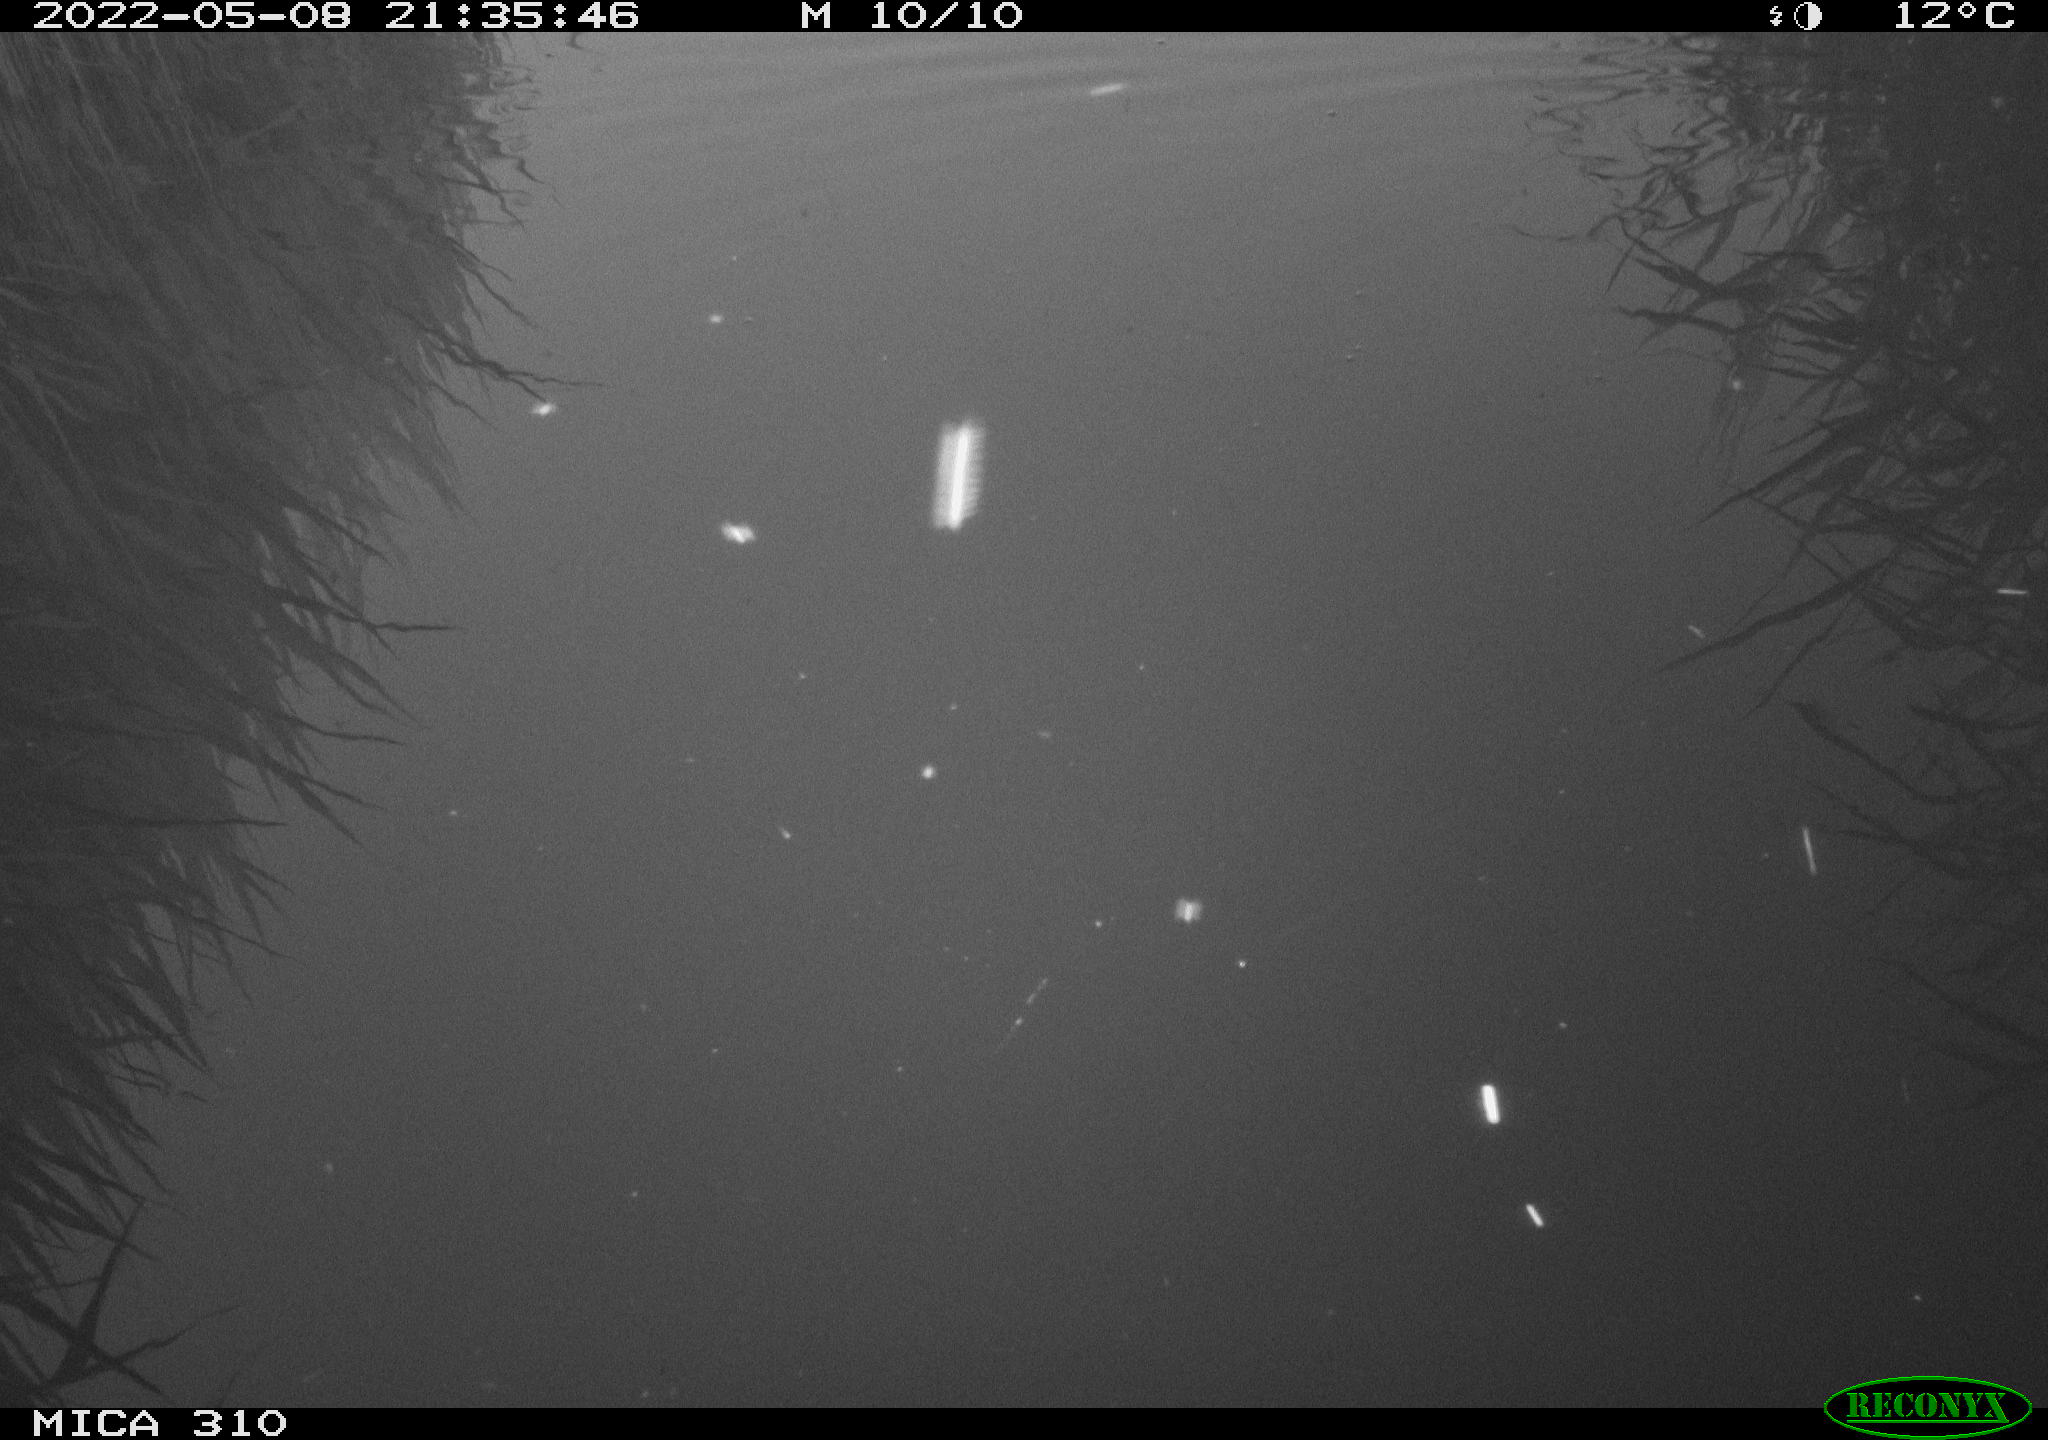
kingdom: Animalia
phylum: Chordata
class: Aves
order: Gruiformes
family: Rallidae
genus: Gallinula
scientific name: Gallinula chloropus
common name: Common moorhen
